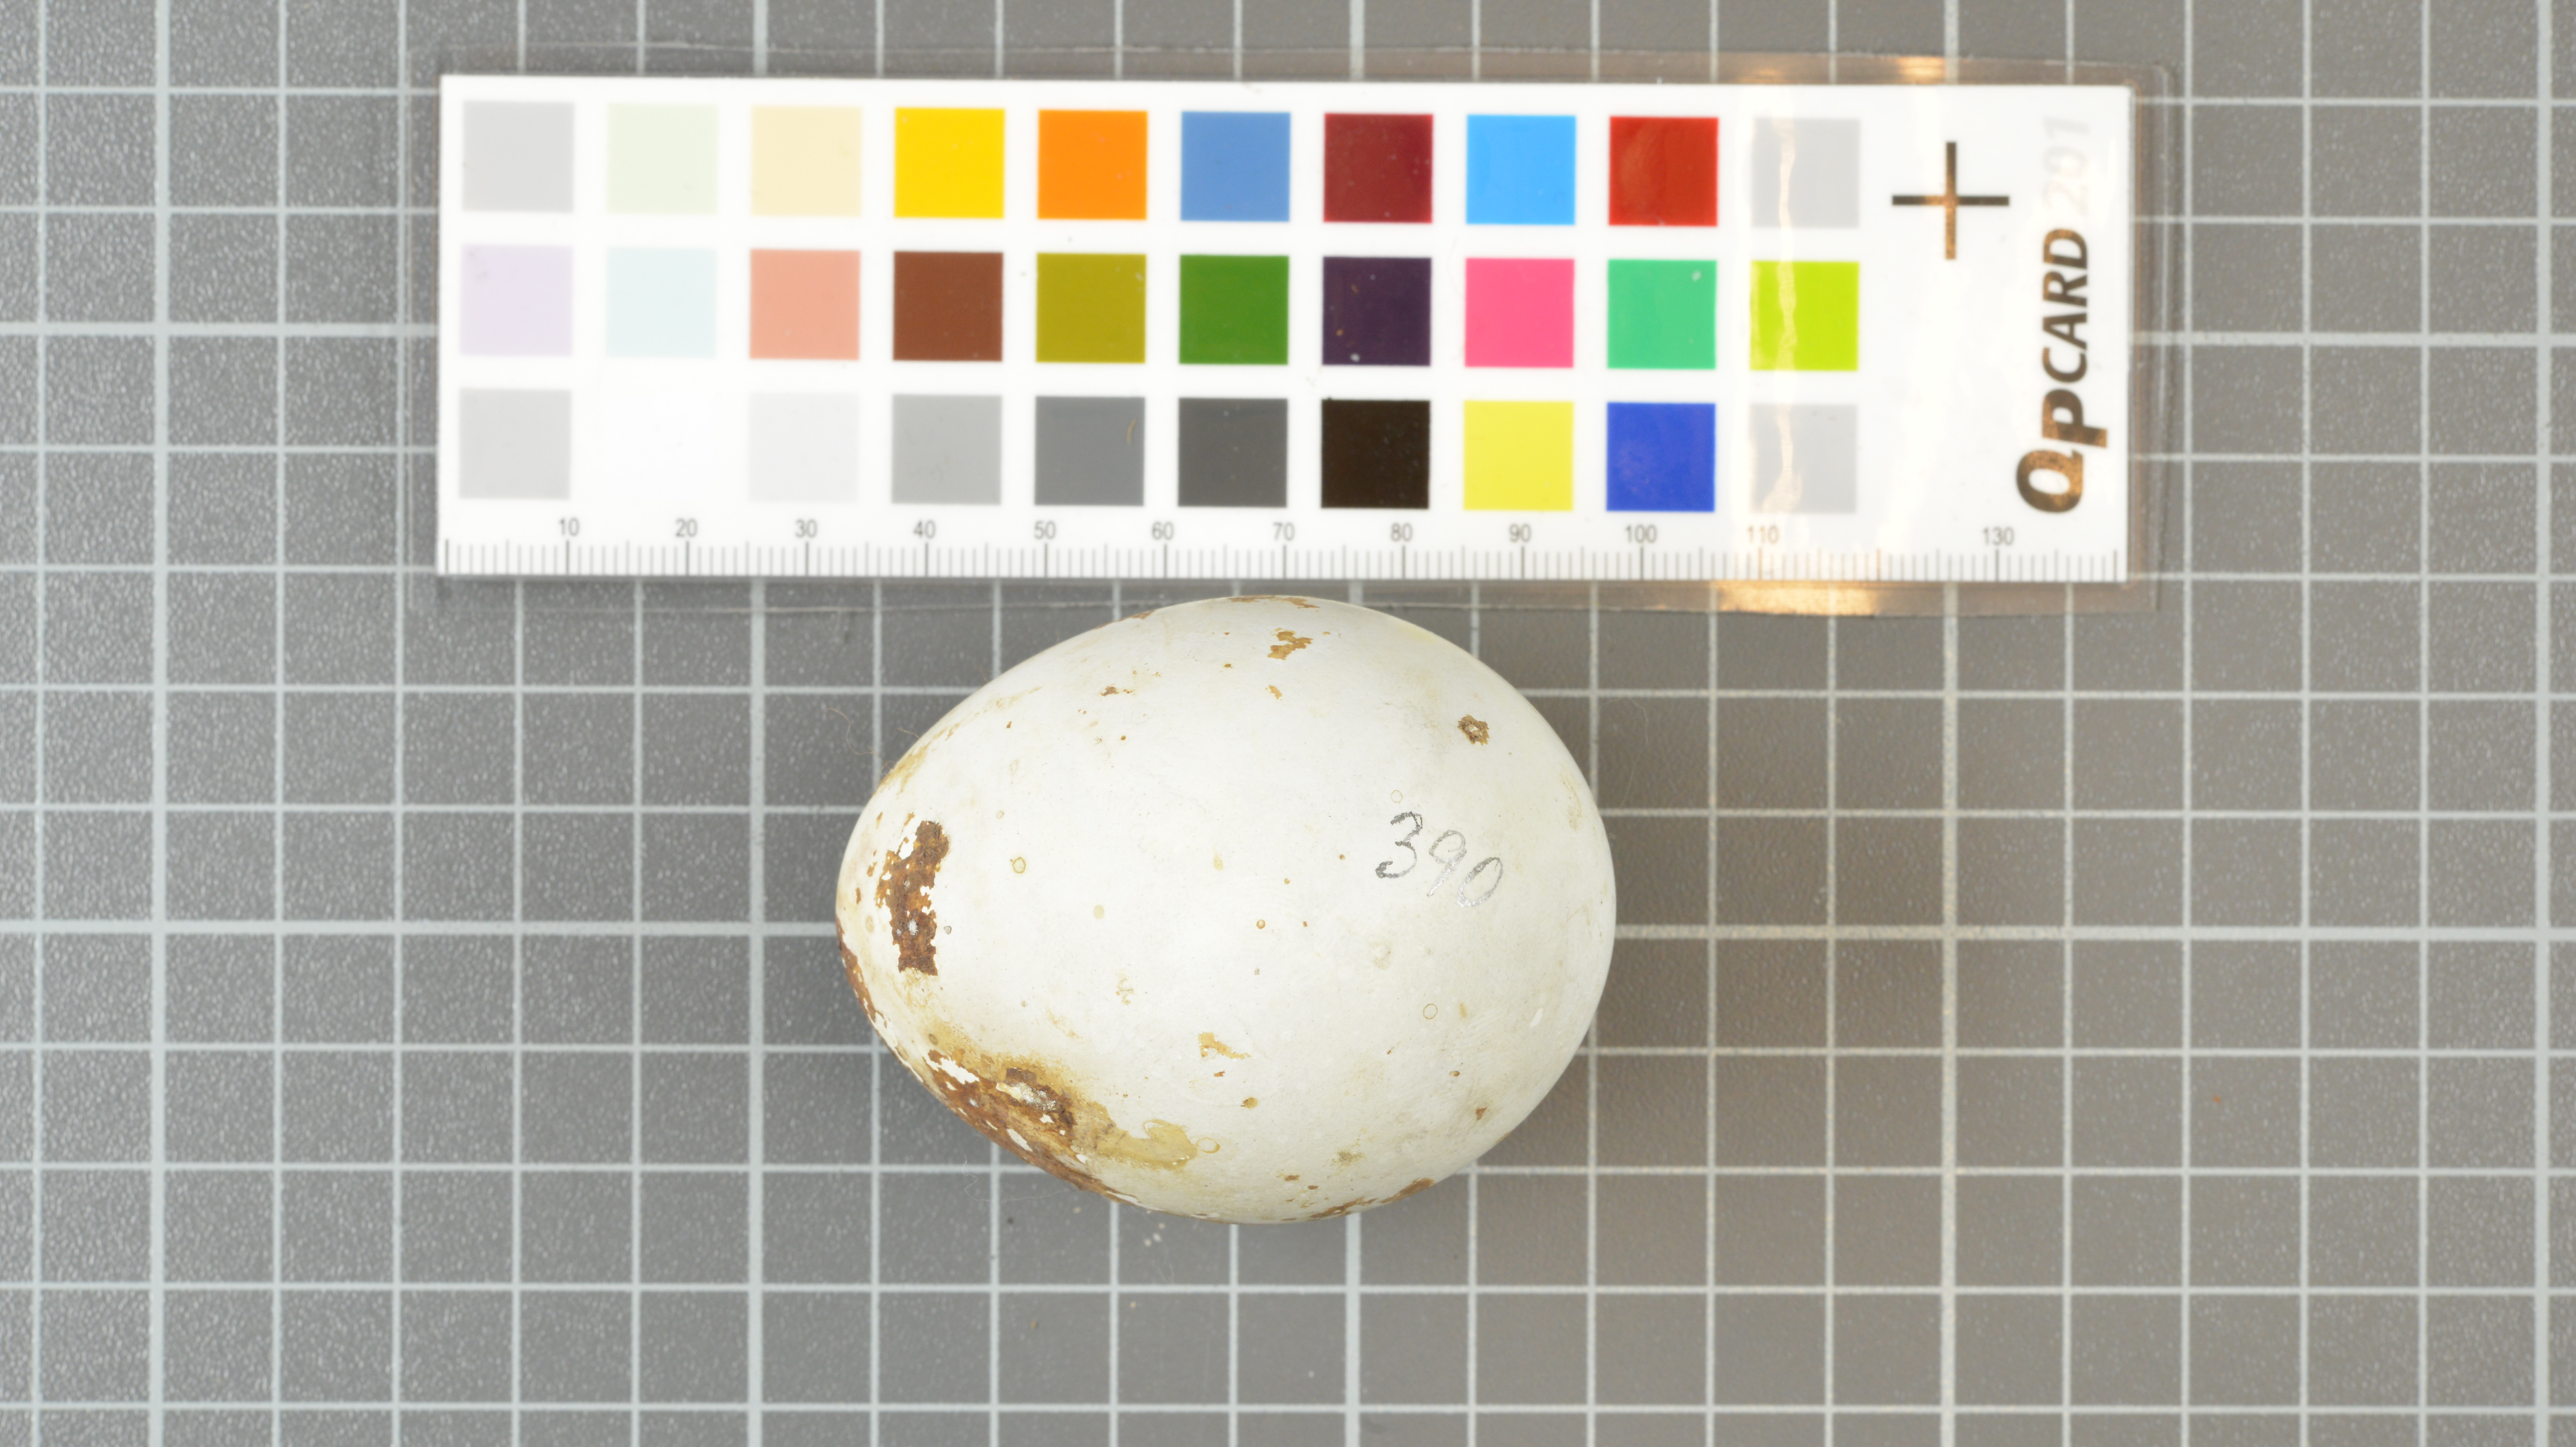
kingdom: Animalia
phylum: Chordata
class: Aves
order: Sphenisciformes
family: Spheniscidae
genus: Eudyptes
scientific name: Eudyptes moseleyi
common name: Northern rockhopper penguin
